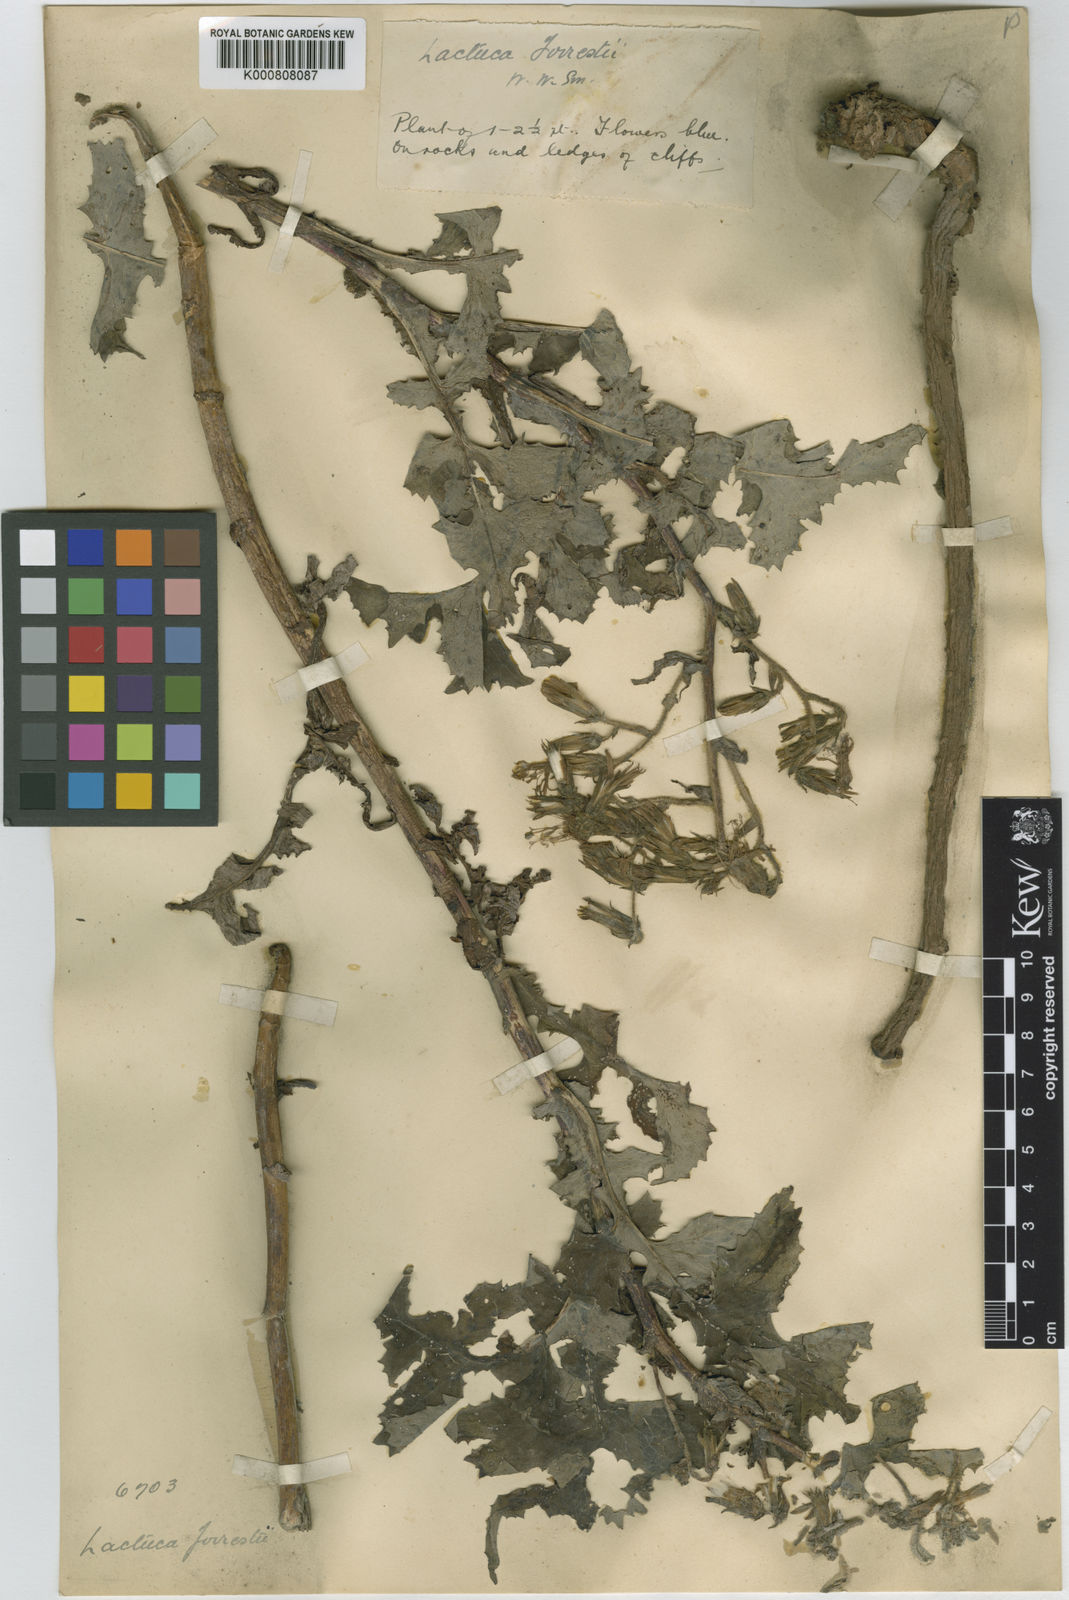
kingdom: Plantae
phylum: Tracheophyta
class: Magnoliopsida
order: Asterales
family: Asteraceae
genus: Melanoseris
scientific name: Melanoseris likiangensis
